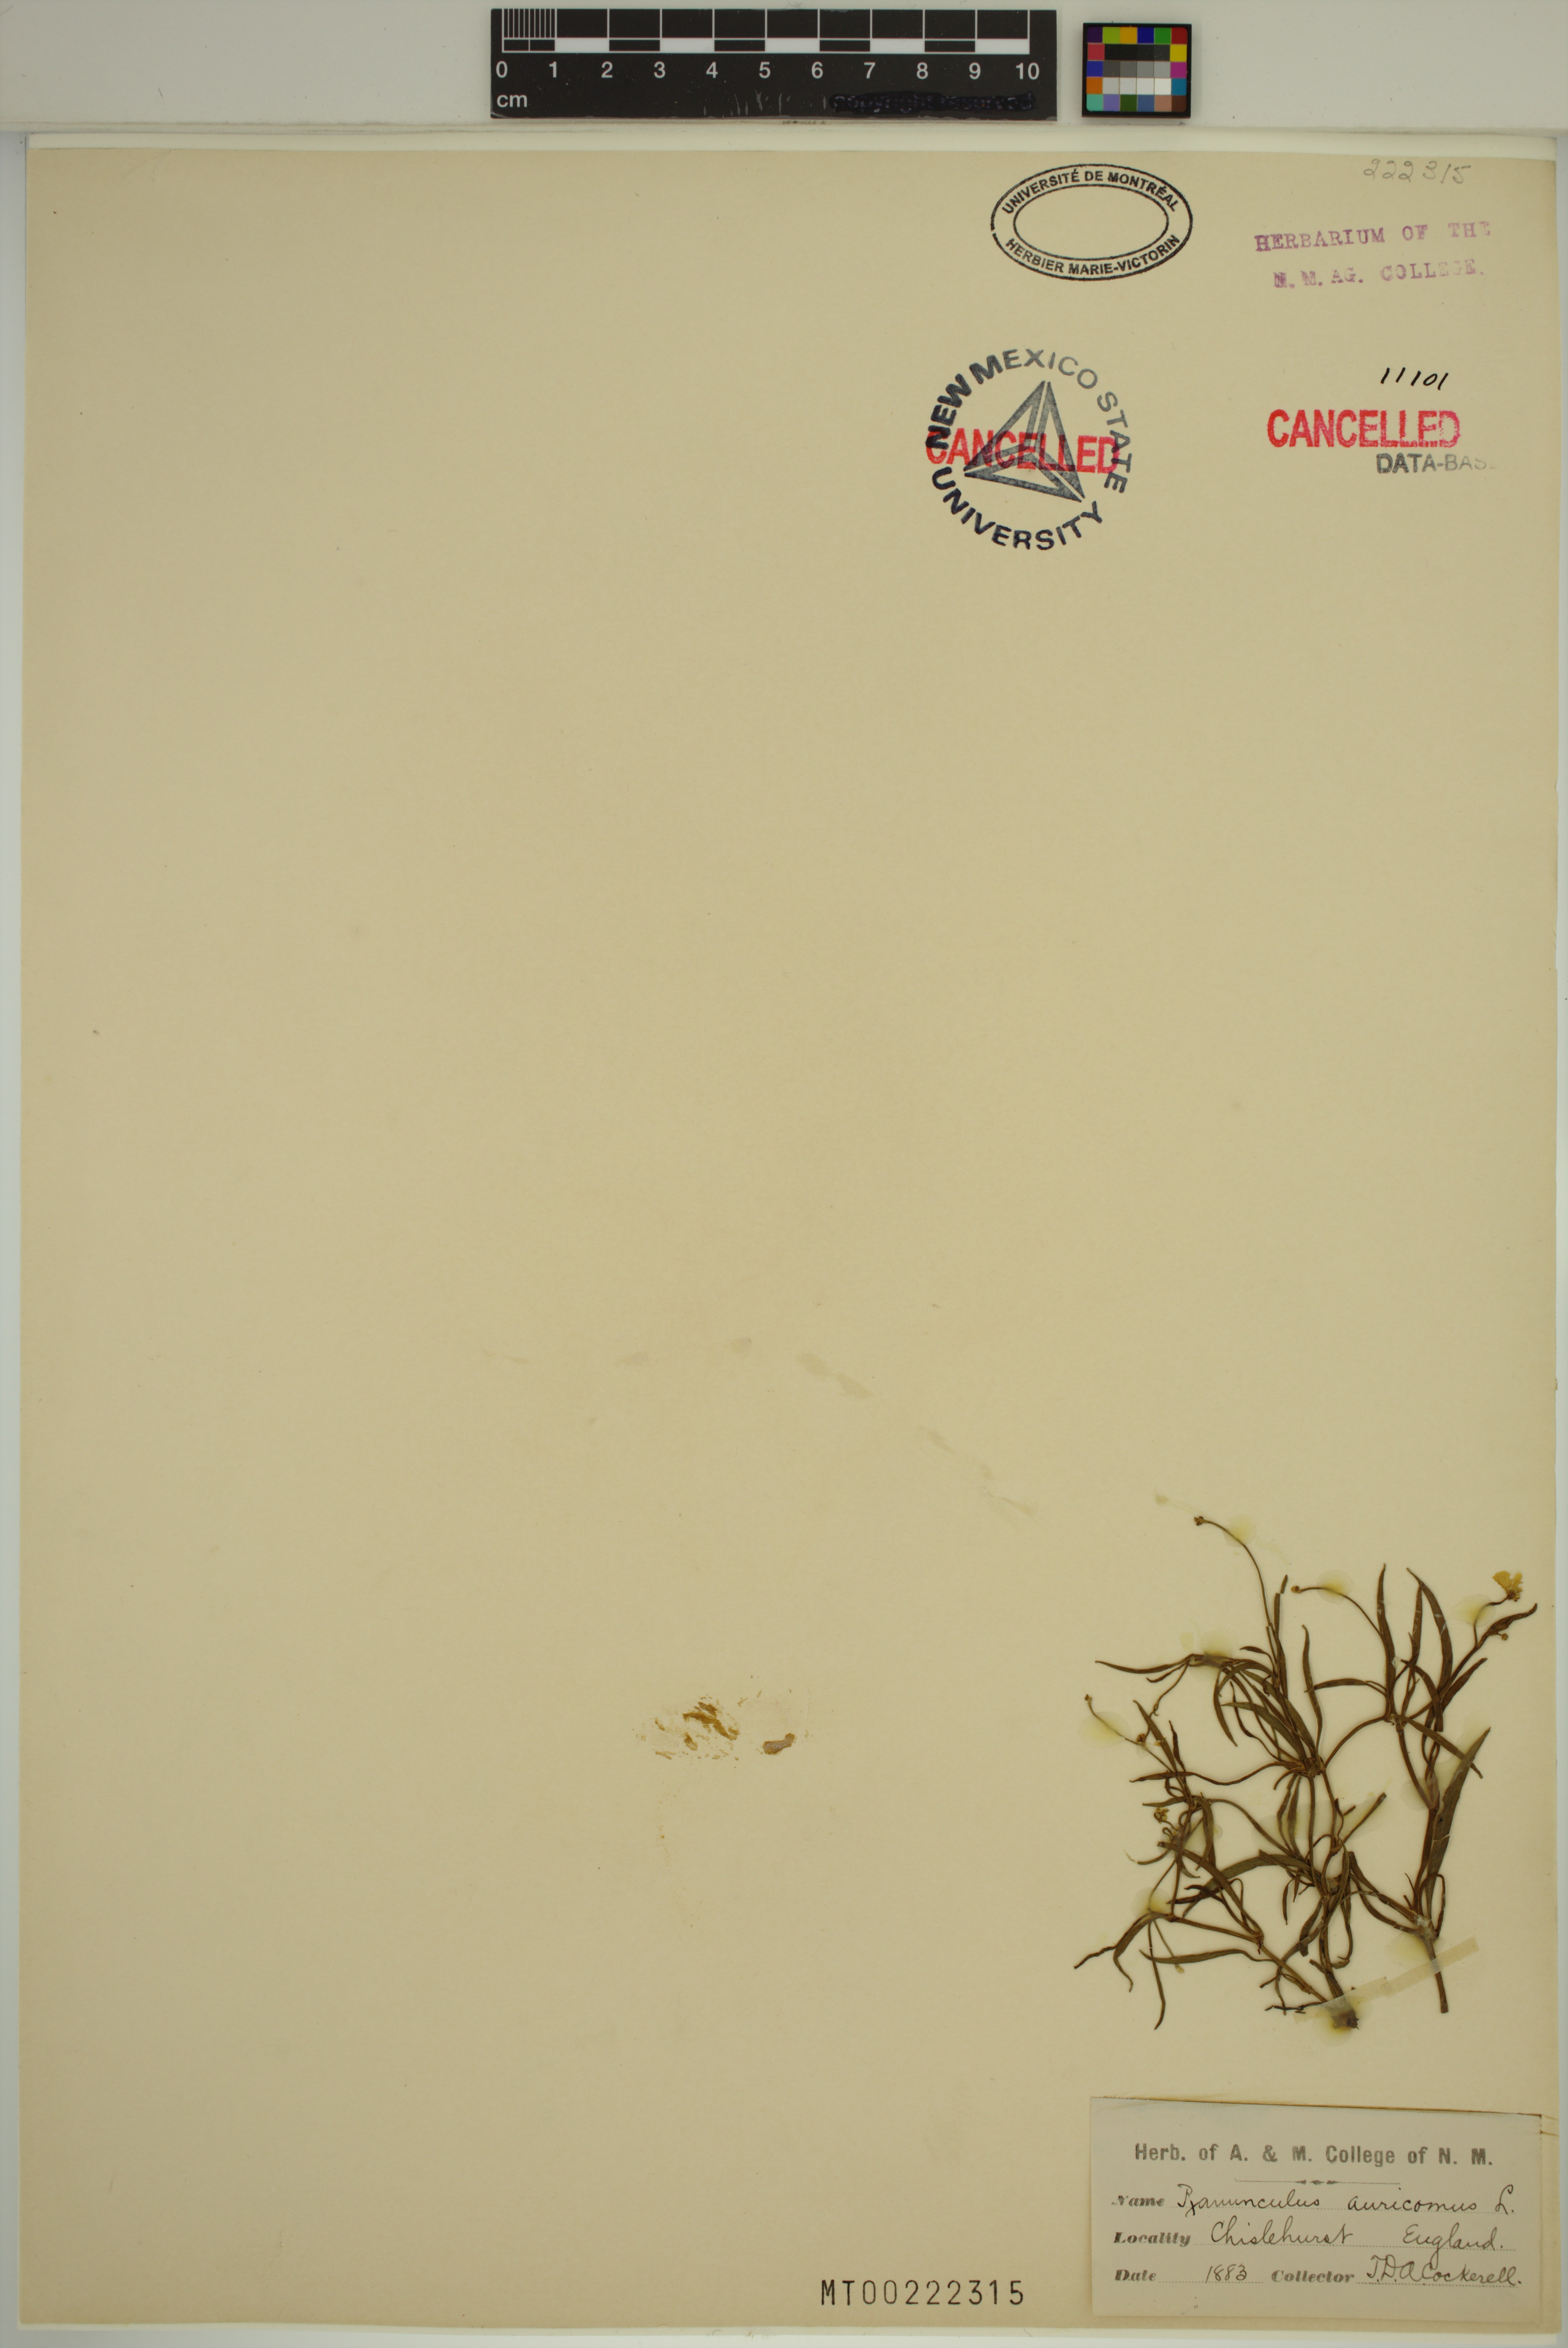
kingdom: Plantae
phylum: Tracheophyta
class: Magnoliopsida
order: Ranunculales
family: Ranunculaceae
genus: Ranunculus
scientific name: Ranunculus auricomus
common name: Goldilocks buttercup
